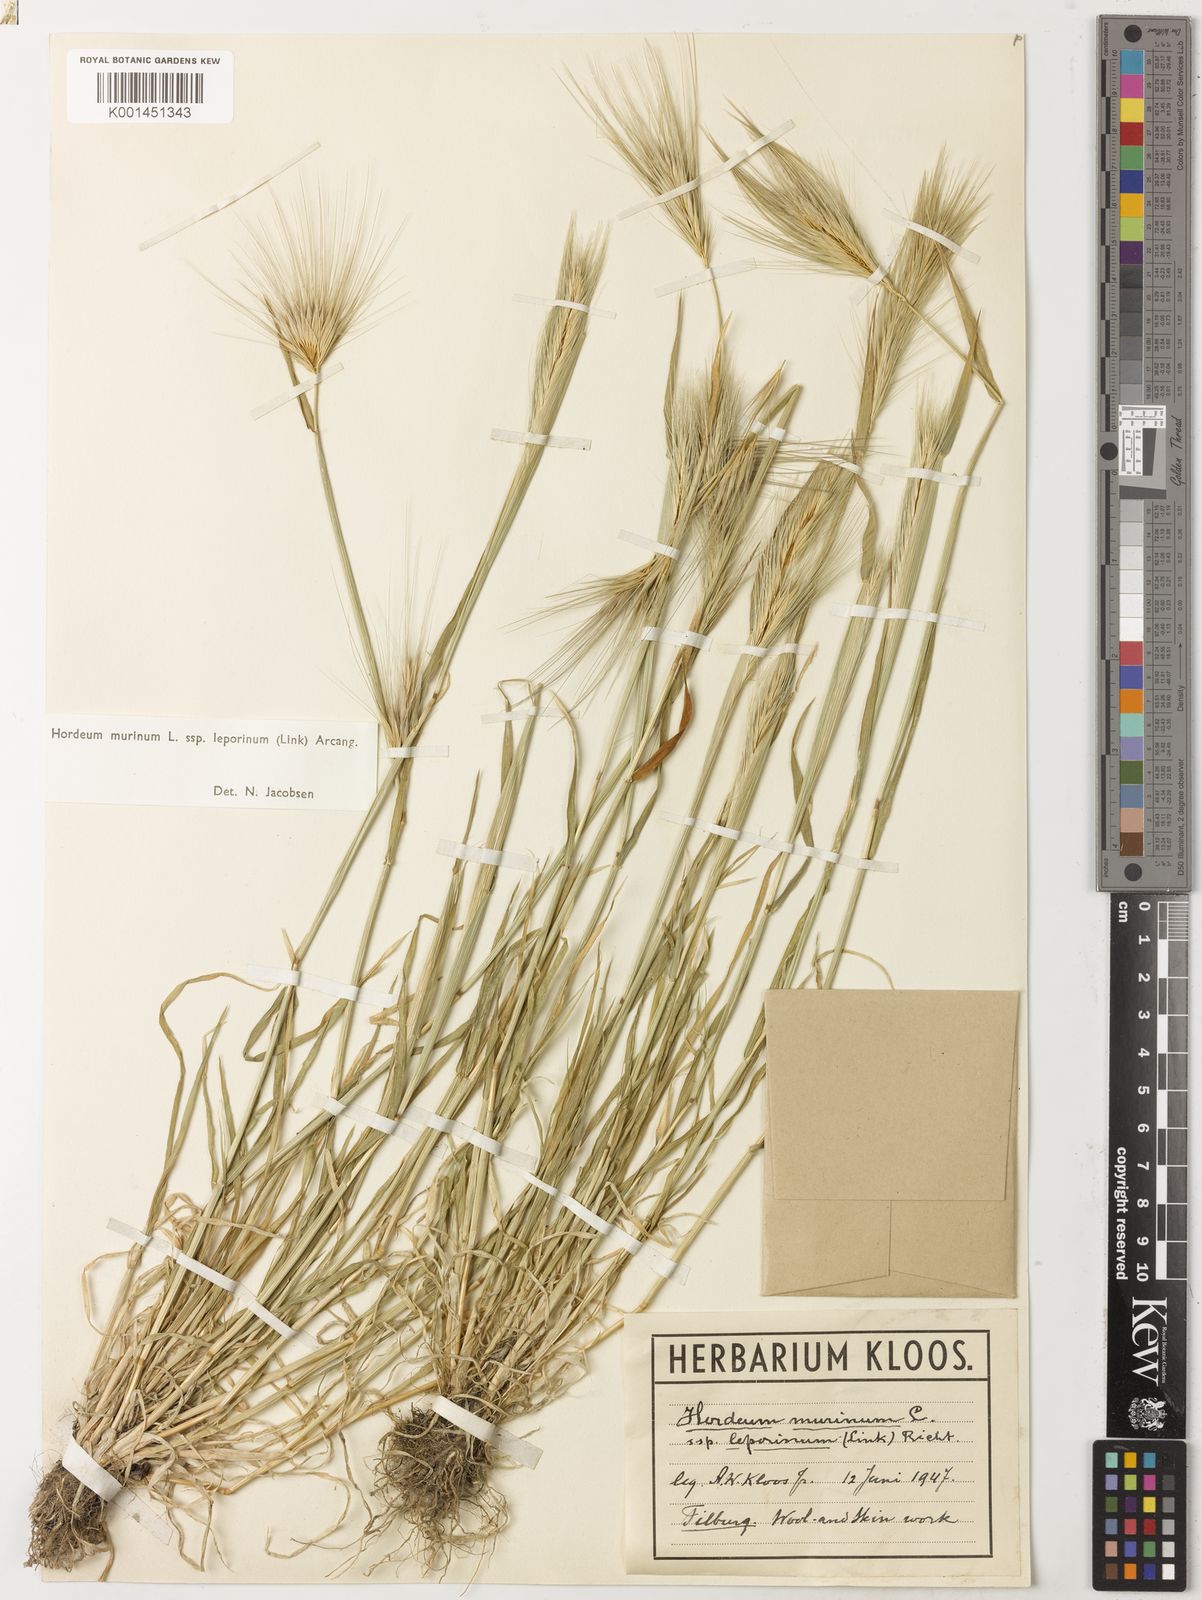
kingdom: Plantae
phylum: Tracheophyta
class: Liliopsida
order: Poales
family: Poaceae
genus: Hordeum
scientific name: Hordeum murinum
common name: Wall barley
